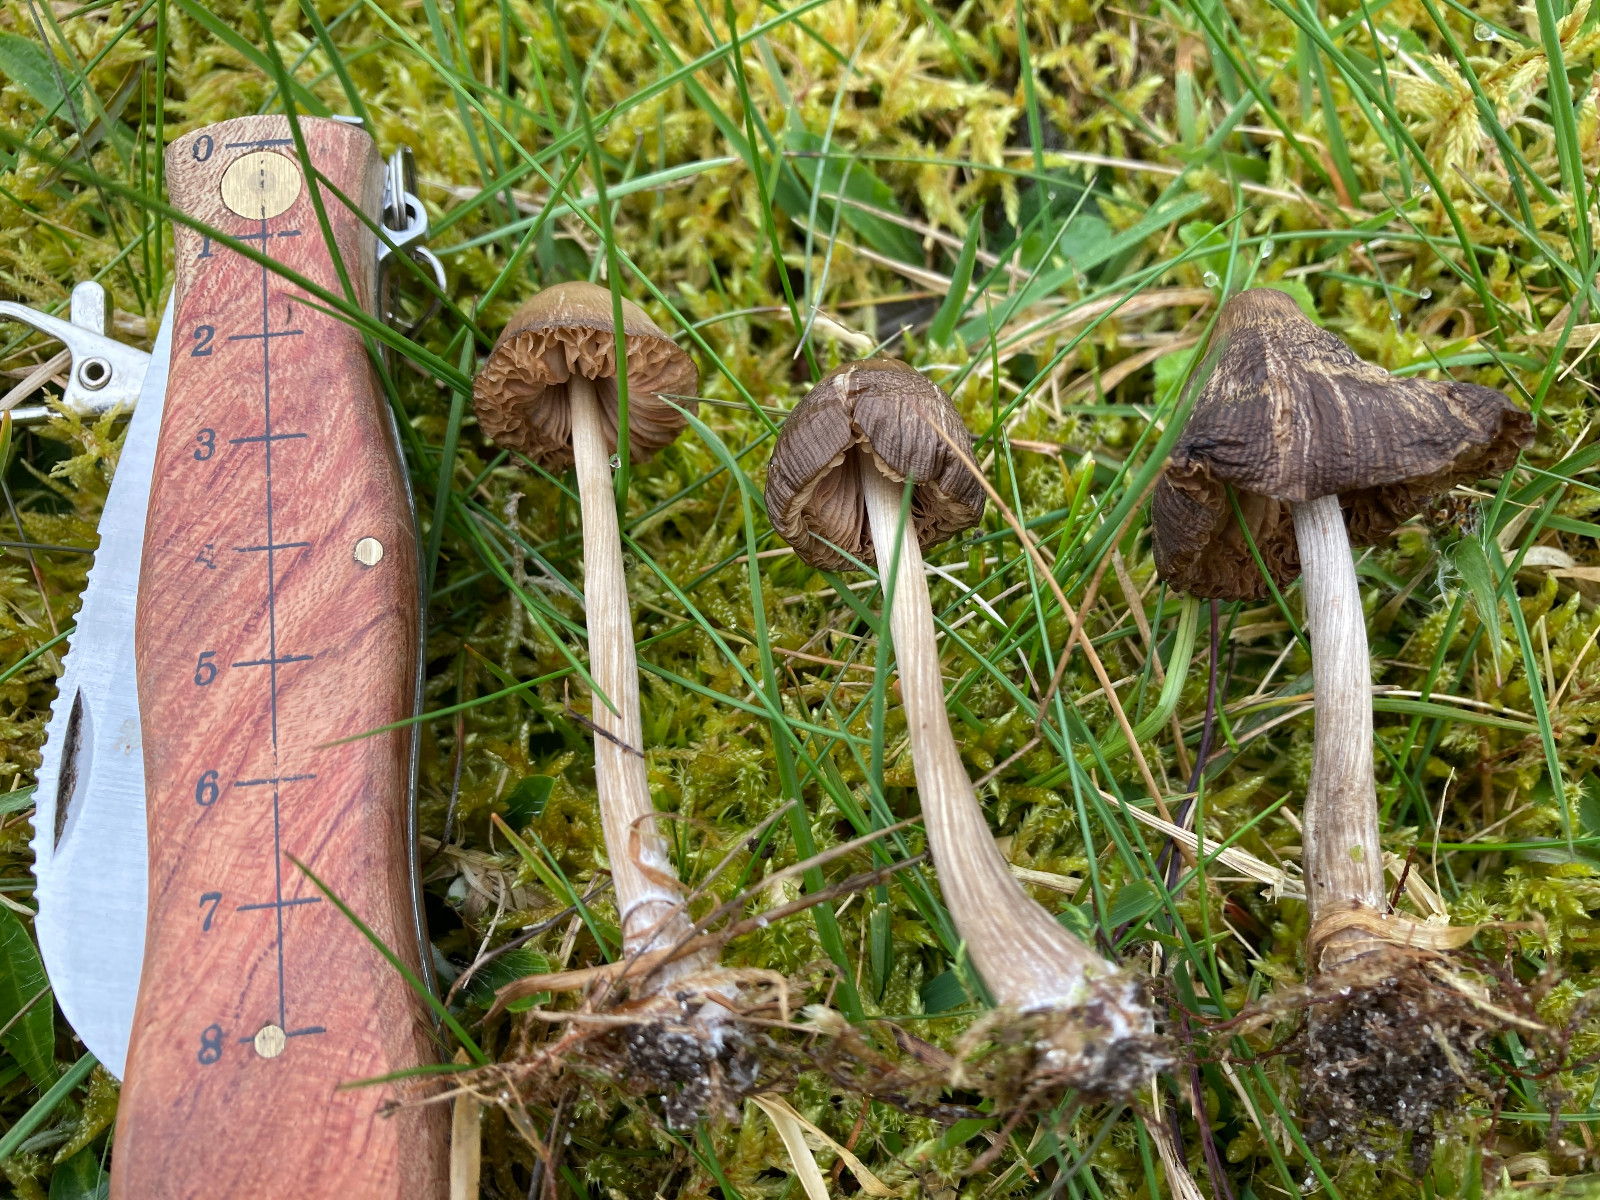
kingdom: Fungi
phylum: Basidiomycota
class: Agaricomycetes
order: Agaricales
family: Entolomataceae
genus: Entoloma
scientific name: Entoloma
